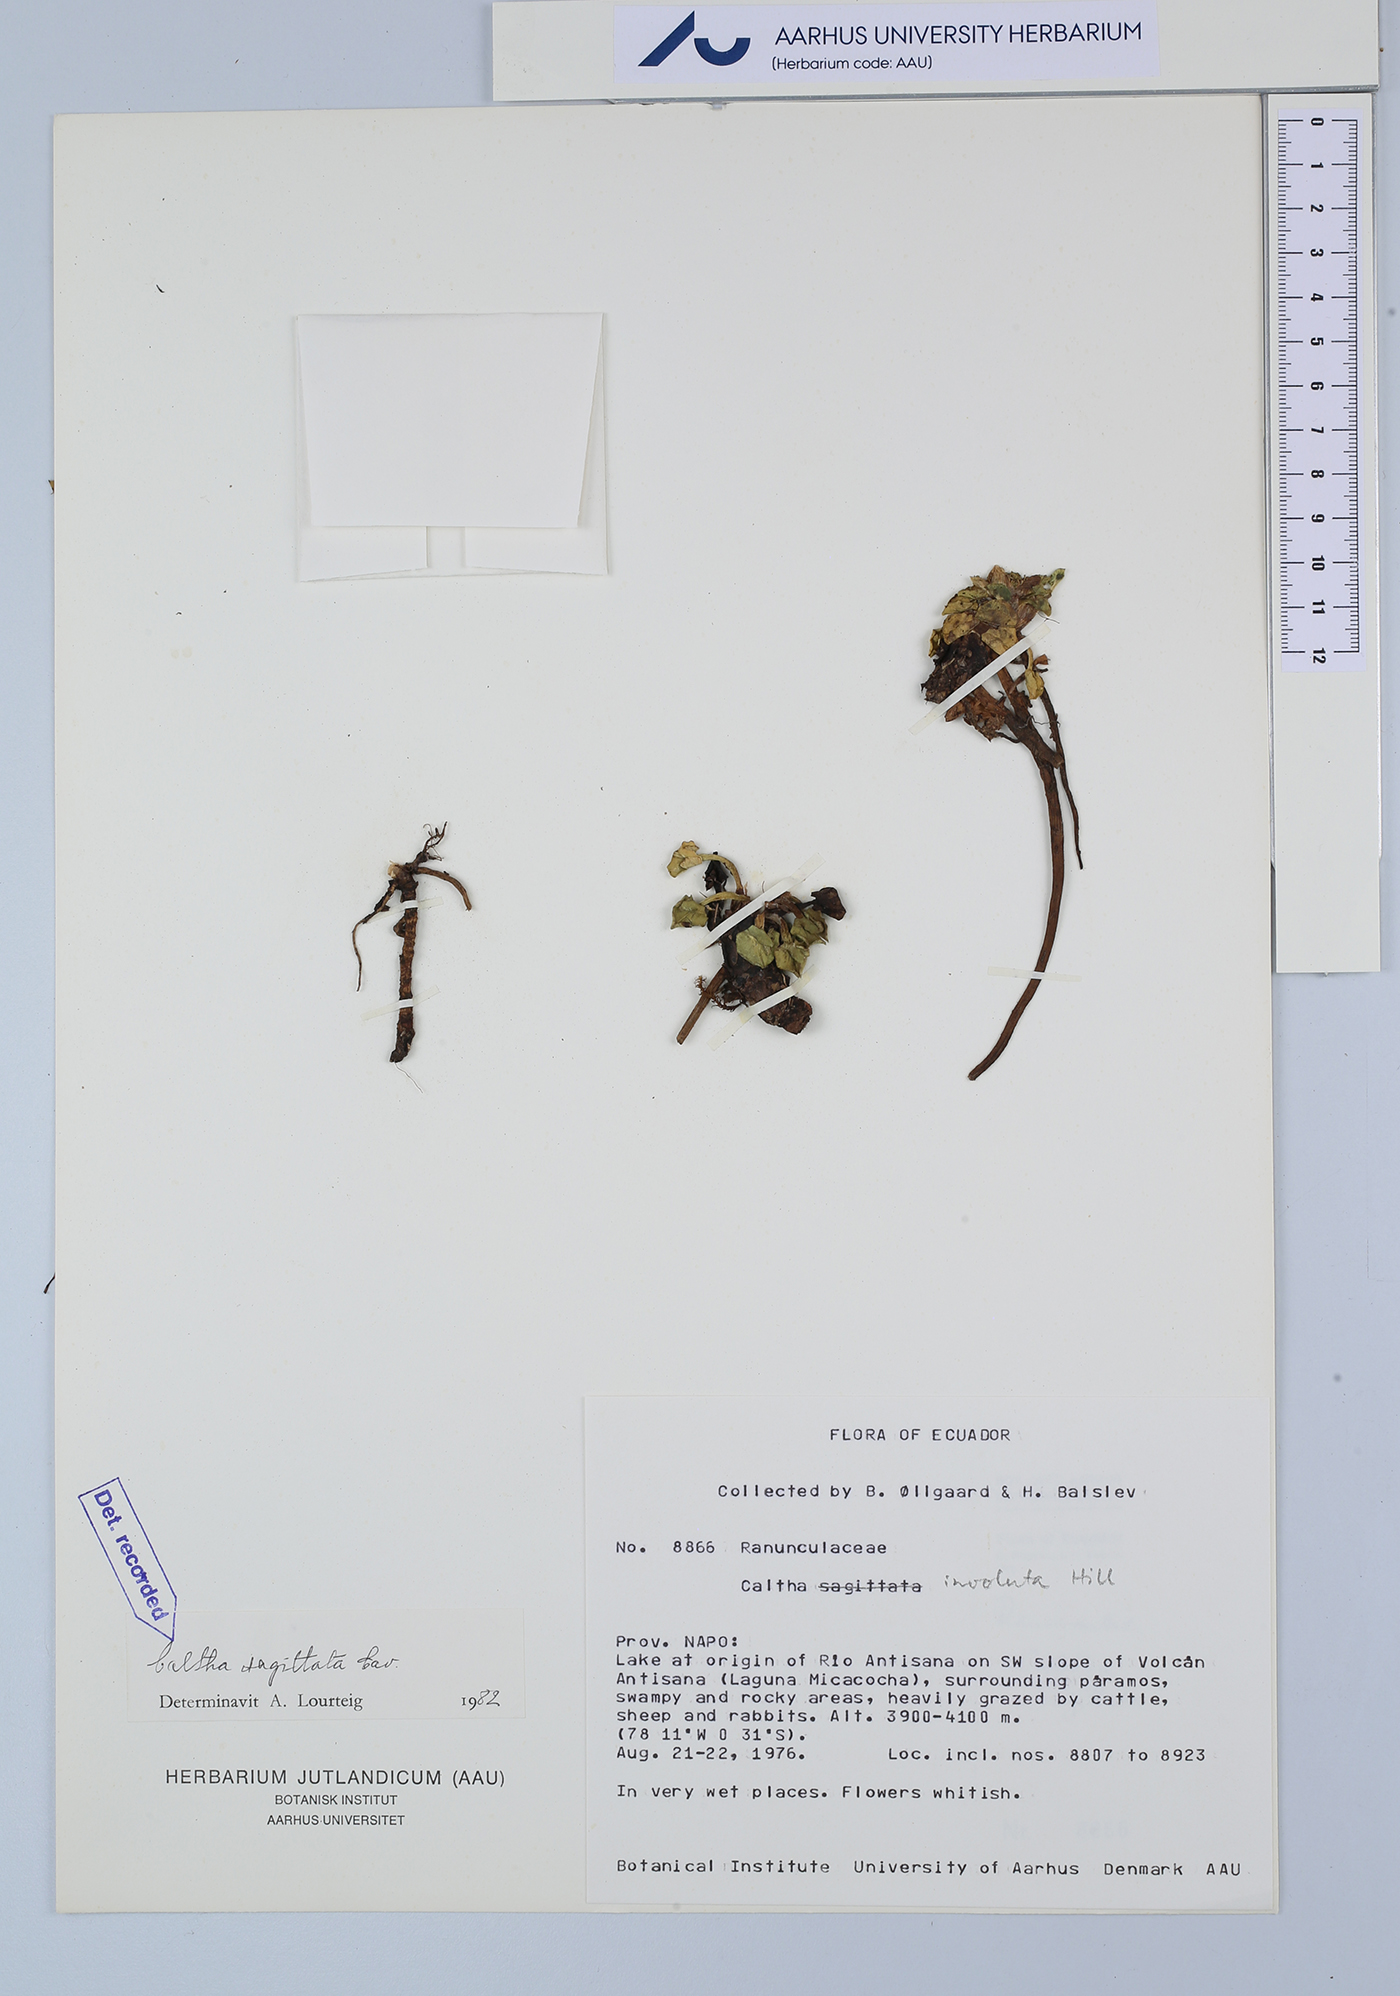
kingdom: Plantae
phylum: Tracheophyta
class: Magnoliopsida
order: Ranunculales
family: Ranunculaceae
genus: Caltha
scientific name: Caltha sagittata
